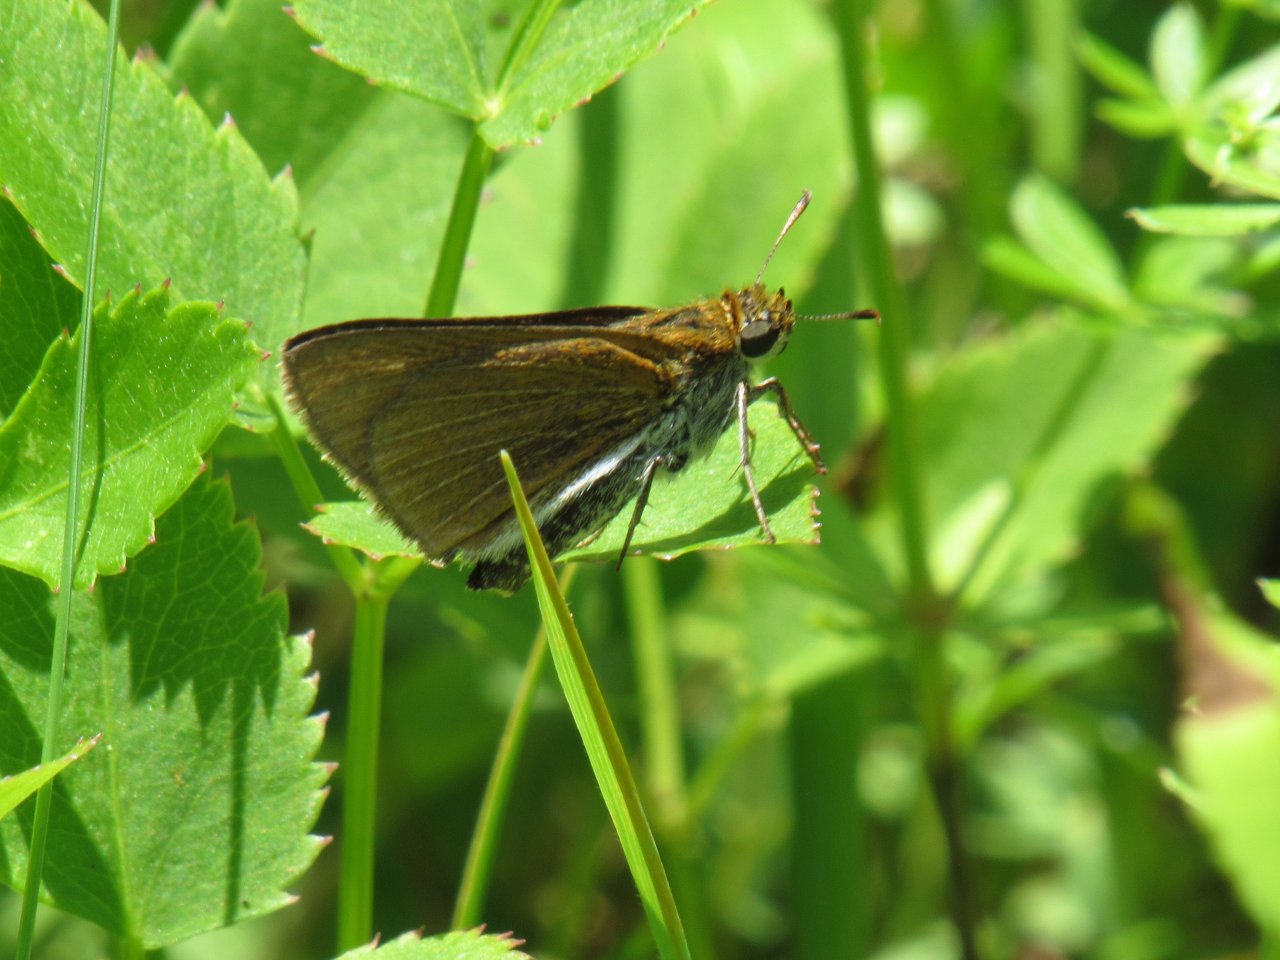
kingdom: Animalia
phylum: Arthropoda
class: Insecta
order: Lepidoptera
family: Hesperiidae
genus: Euphyes
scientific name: Euphyes bimacula
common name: Two-spotted Skipper
